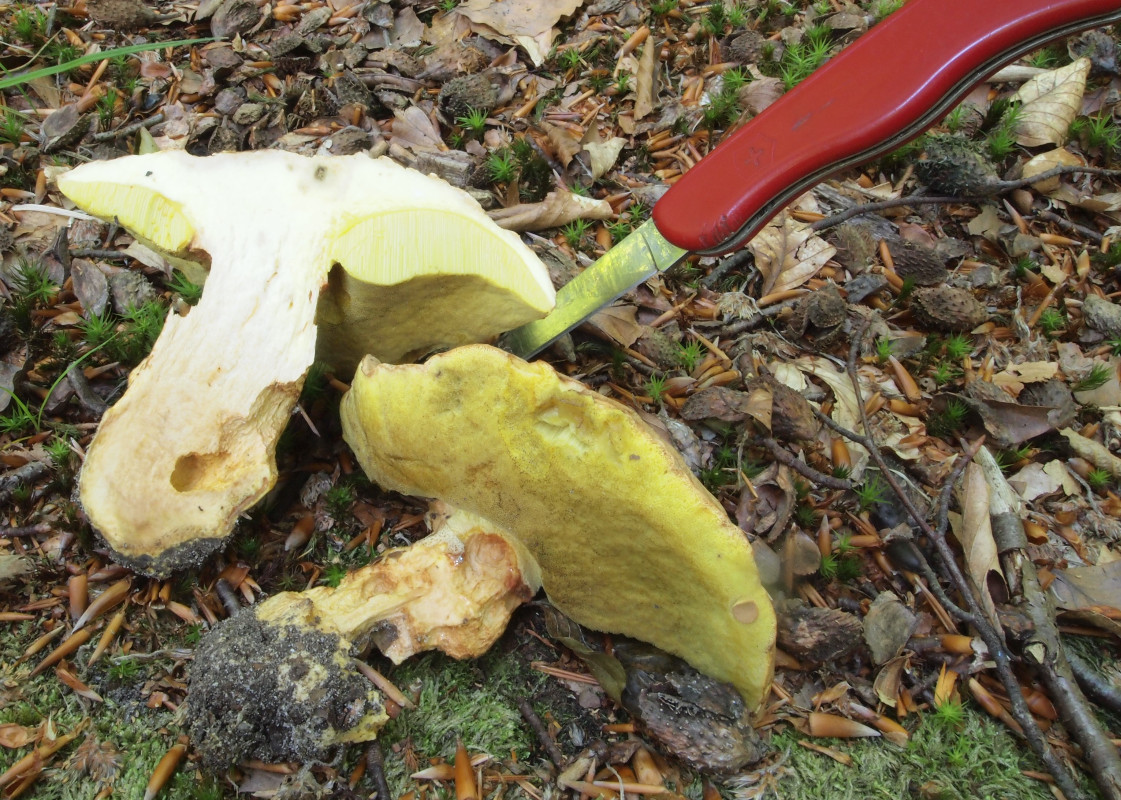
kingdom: Fungi
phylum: Basidiomycota
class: Agaricomycetes
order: Boletales
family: Boletaceae
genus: Butyriboletus
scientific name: Butyriboletus appendiculatus
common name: tenstokket rørhat
